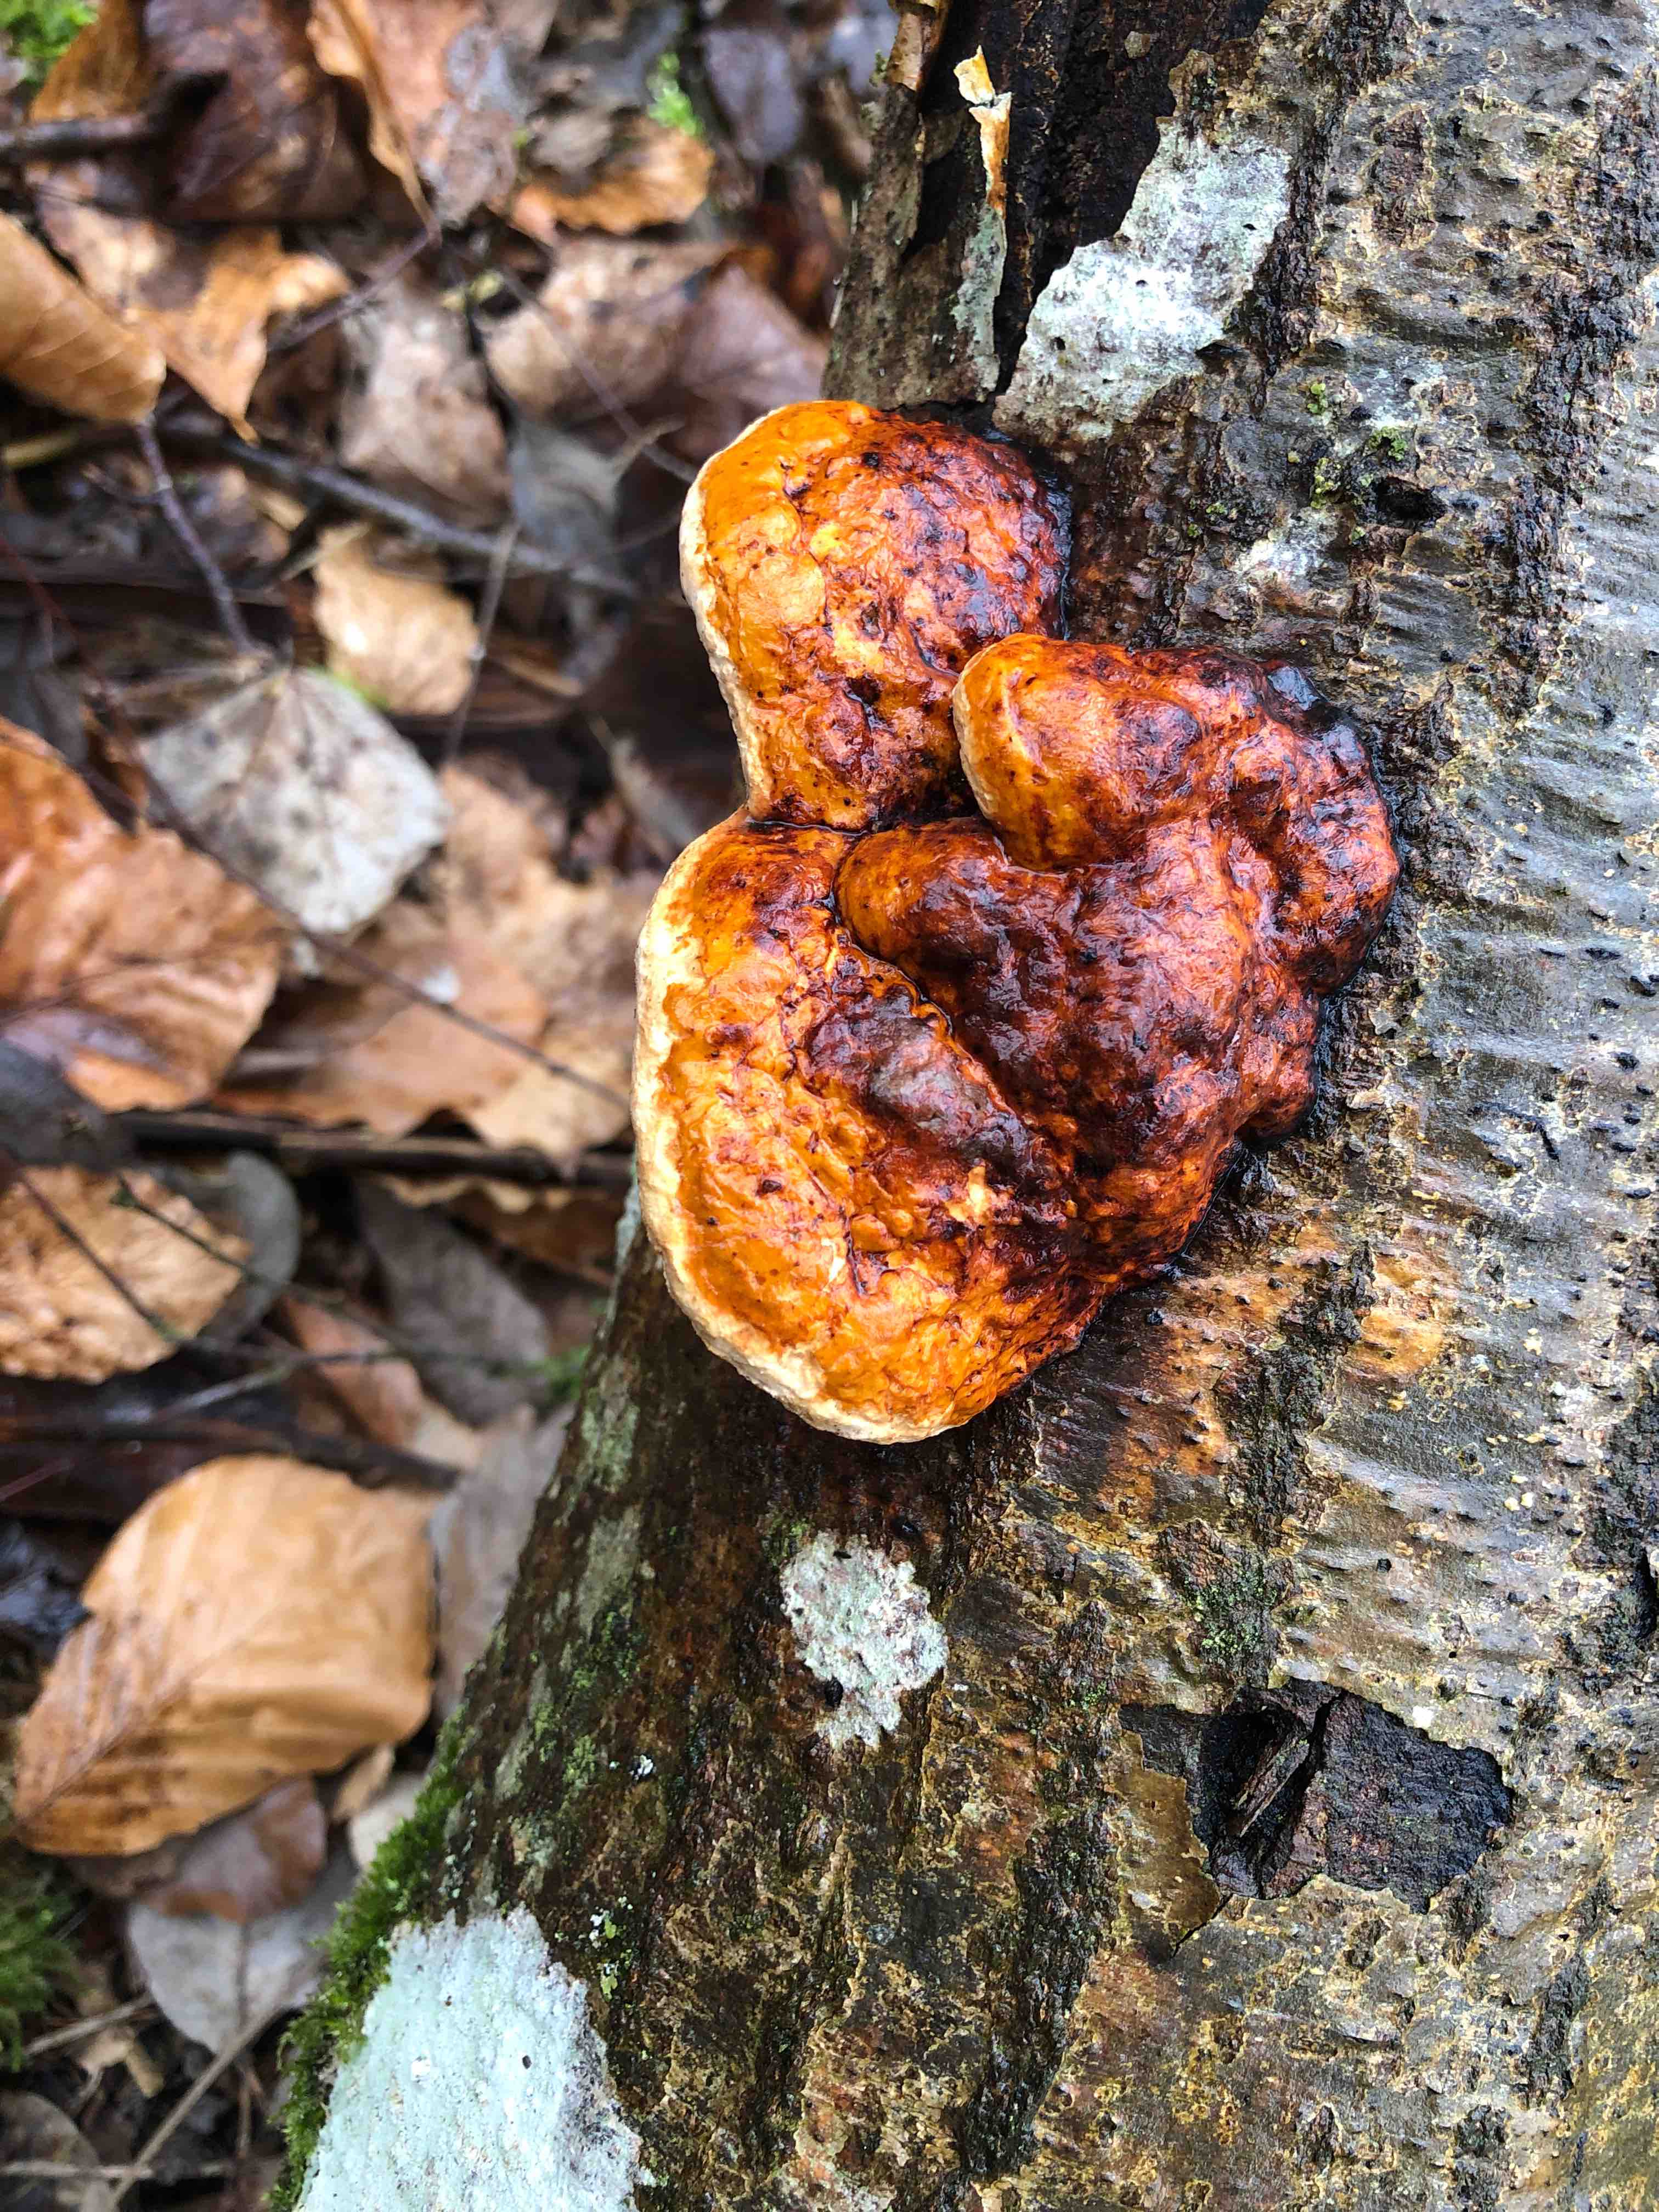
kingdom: Fungi
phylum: Basidiomycota
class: Agaricomycetes
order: Polyporales
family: Fomitopsidaceae
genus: Fomitopsis
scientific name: Fomitopsis pinicola
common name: randbæltet hovporesvamp
